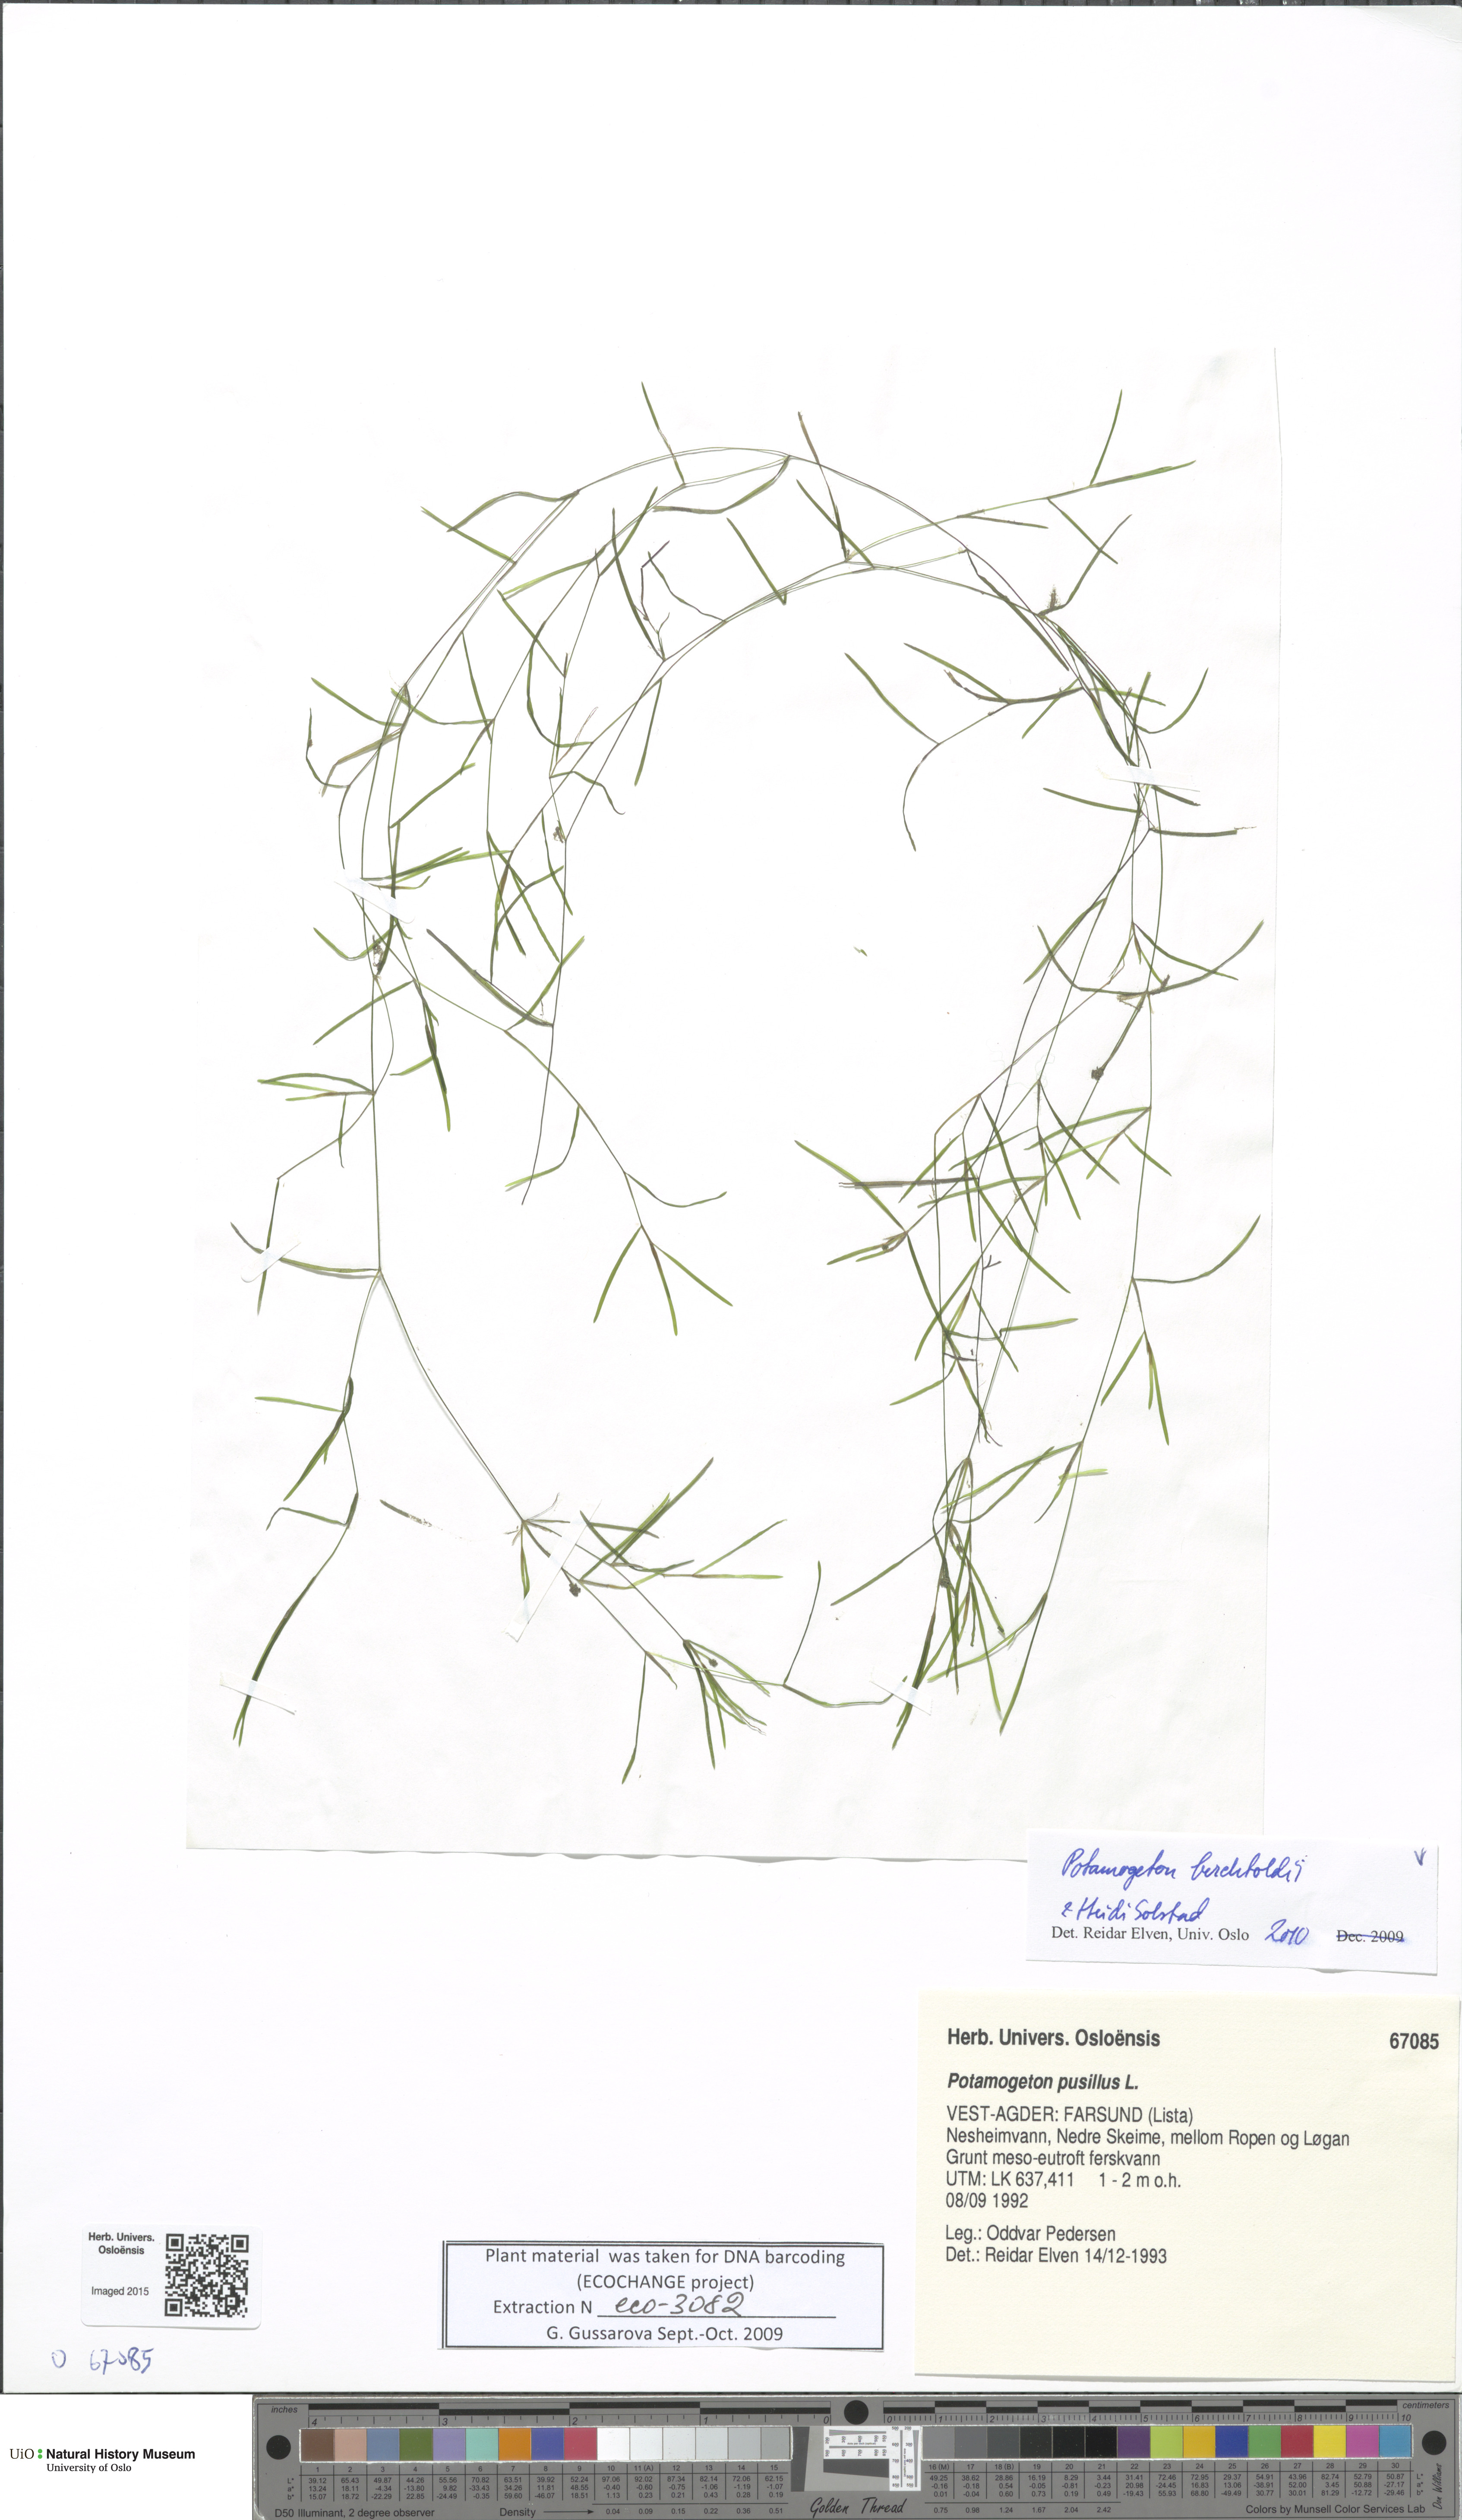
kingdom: Plantae
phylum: Tracheophyta
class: Liliopsida
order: Alismatales
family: Potamogetonaceae
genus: Potamogeton
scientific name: Potamogeton berchtoldii
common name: Small pondweed
